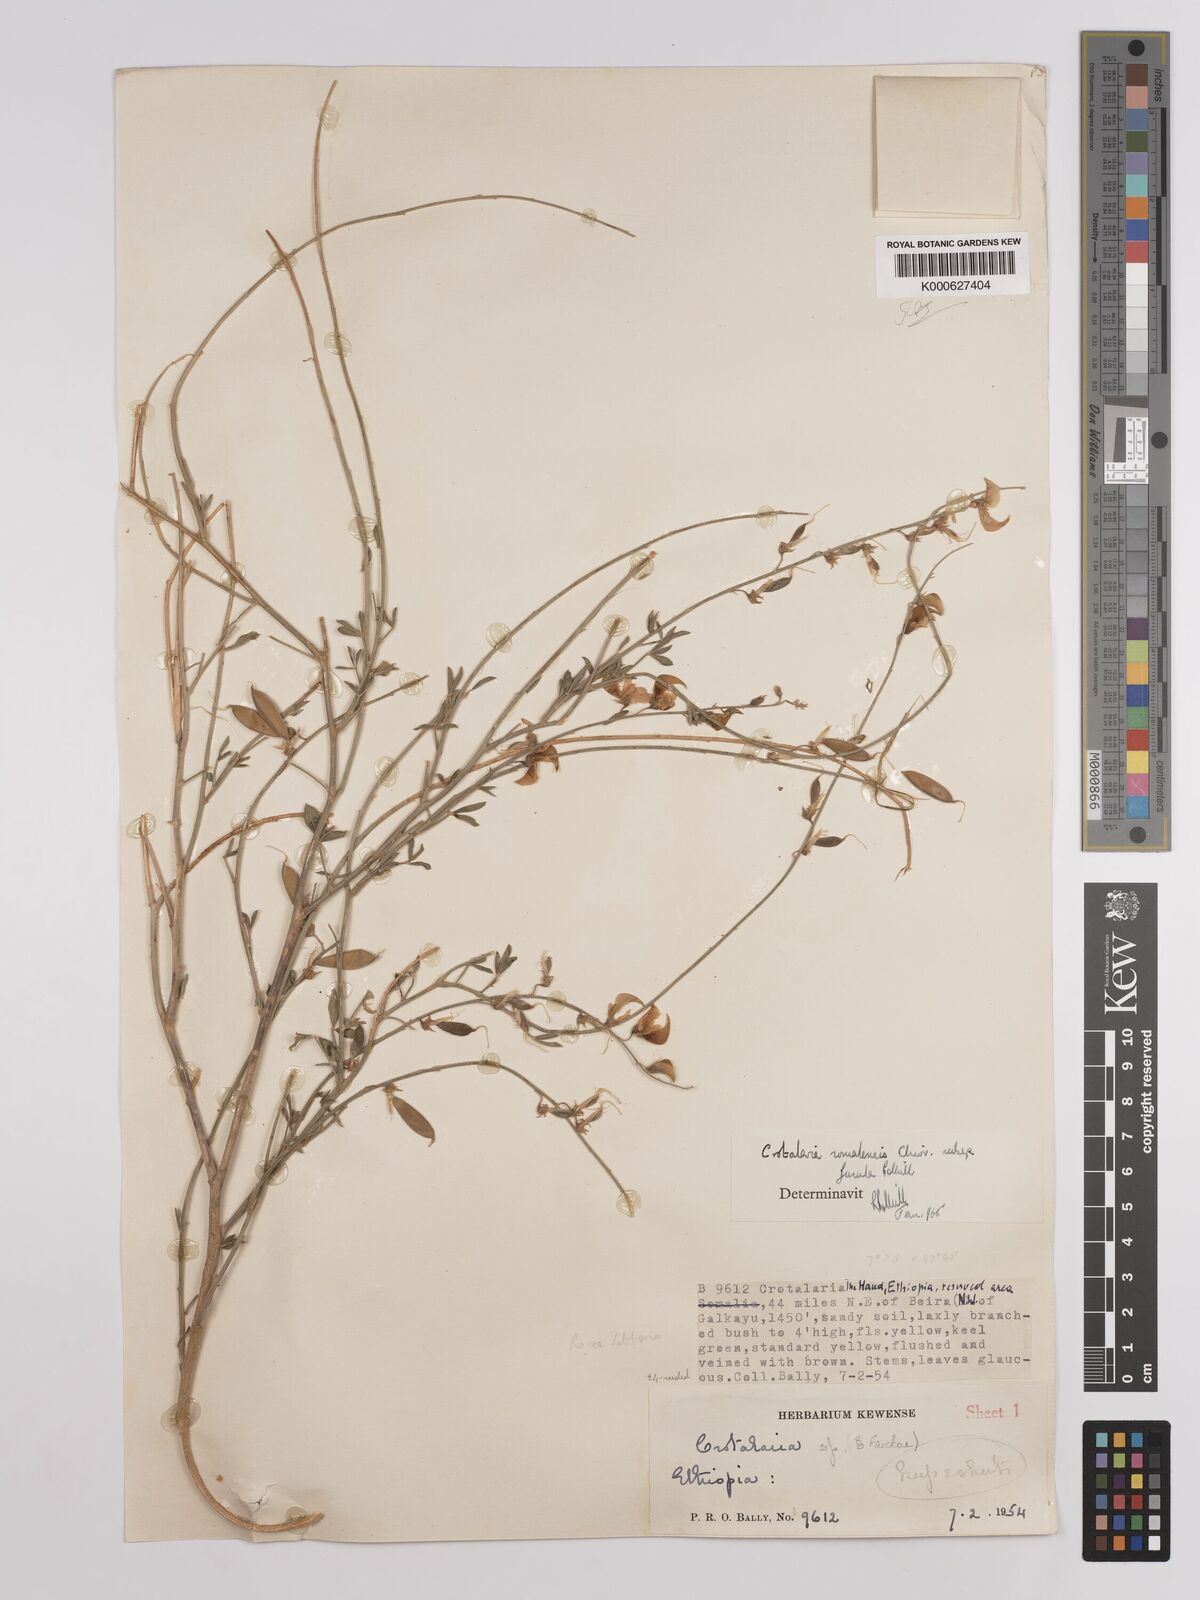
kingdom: Plantae
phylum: Tracheophyta
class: Magnoliopsida
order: Fabales
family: Fabaceae
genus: Crotalaria
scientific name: Crotalaria
